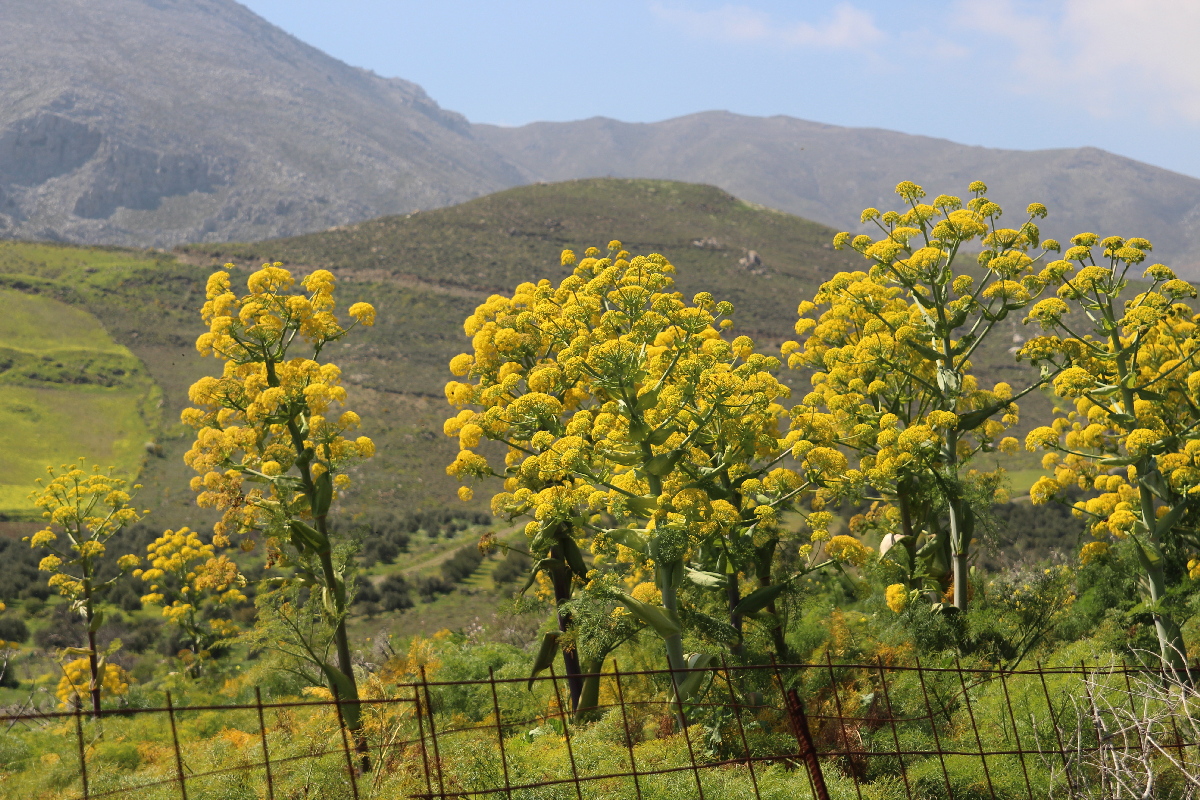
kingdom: Plantae
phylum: Tracheophyta
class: Magnoliopsida
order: Apiales
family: Apiaceae
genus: Ferula
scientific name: Ferula communis
